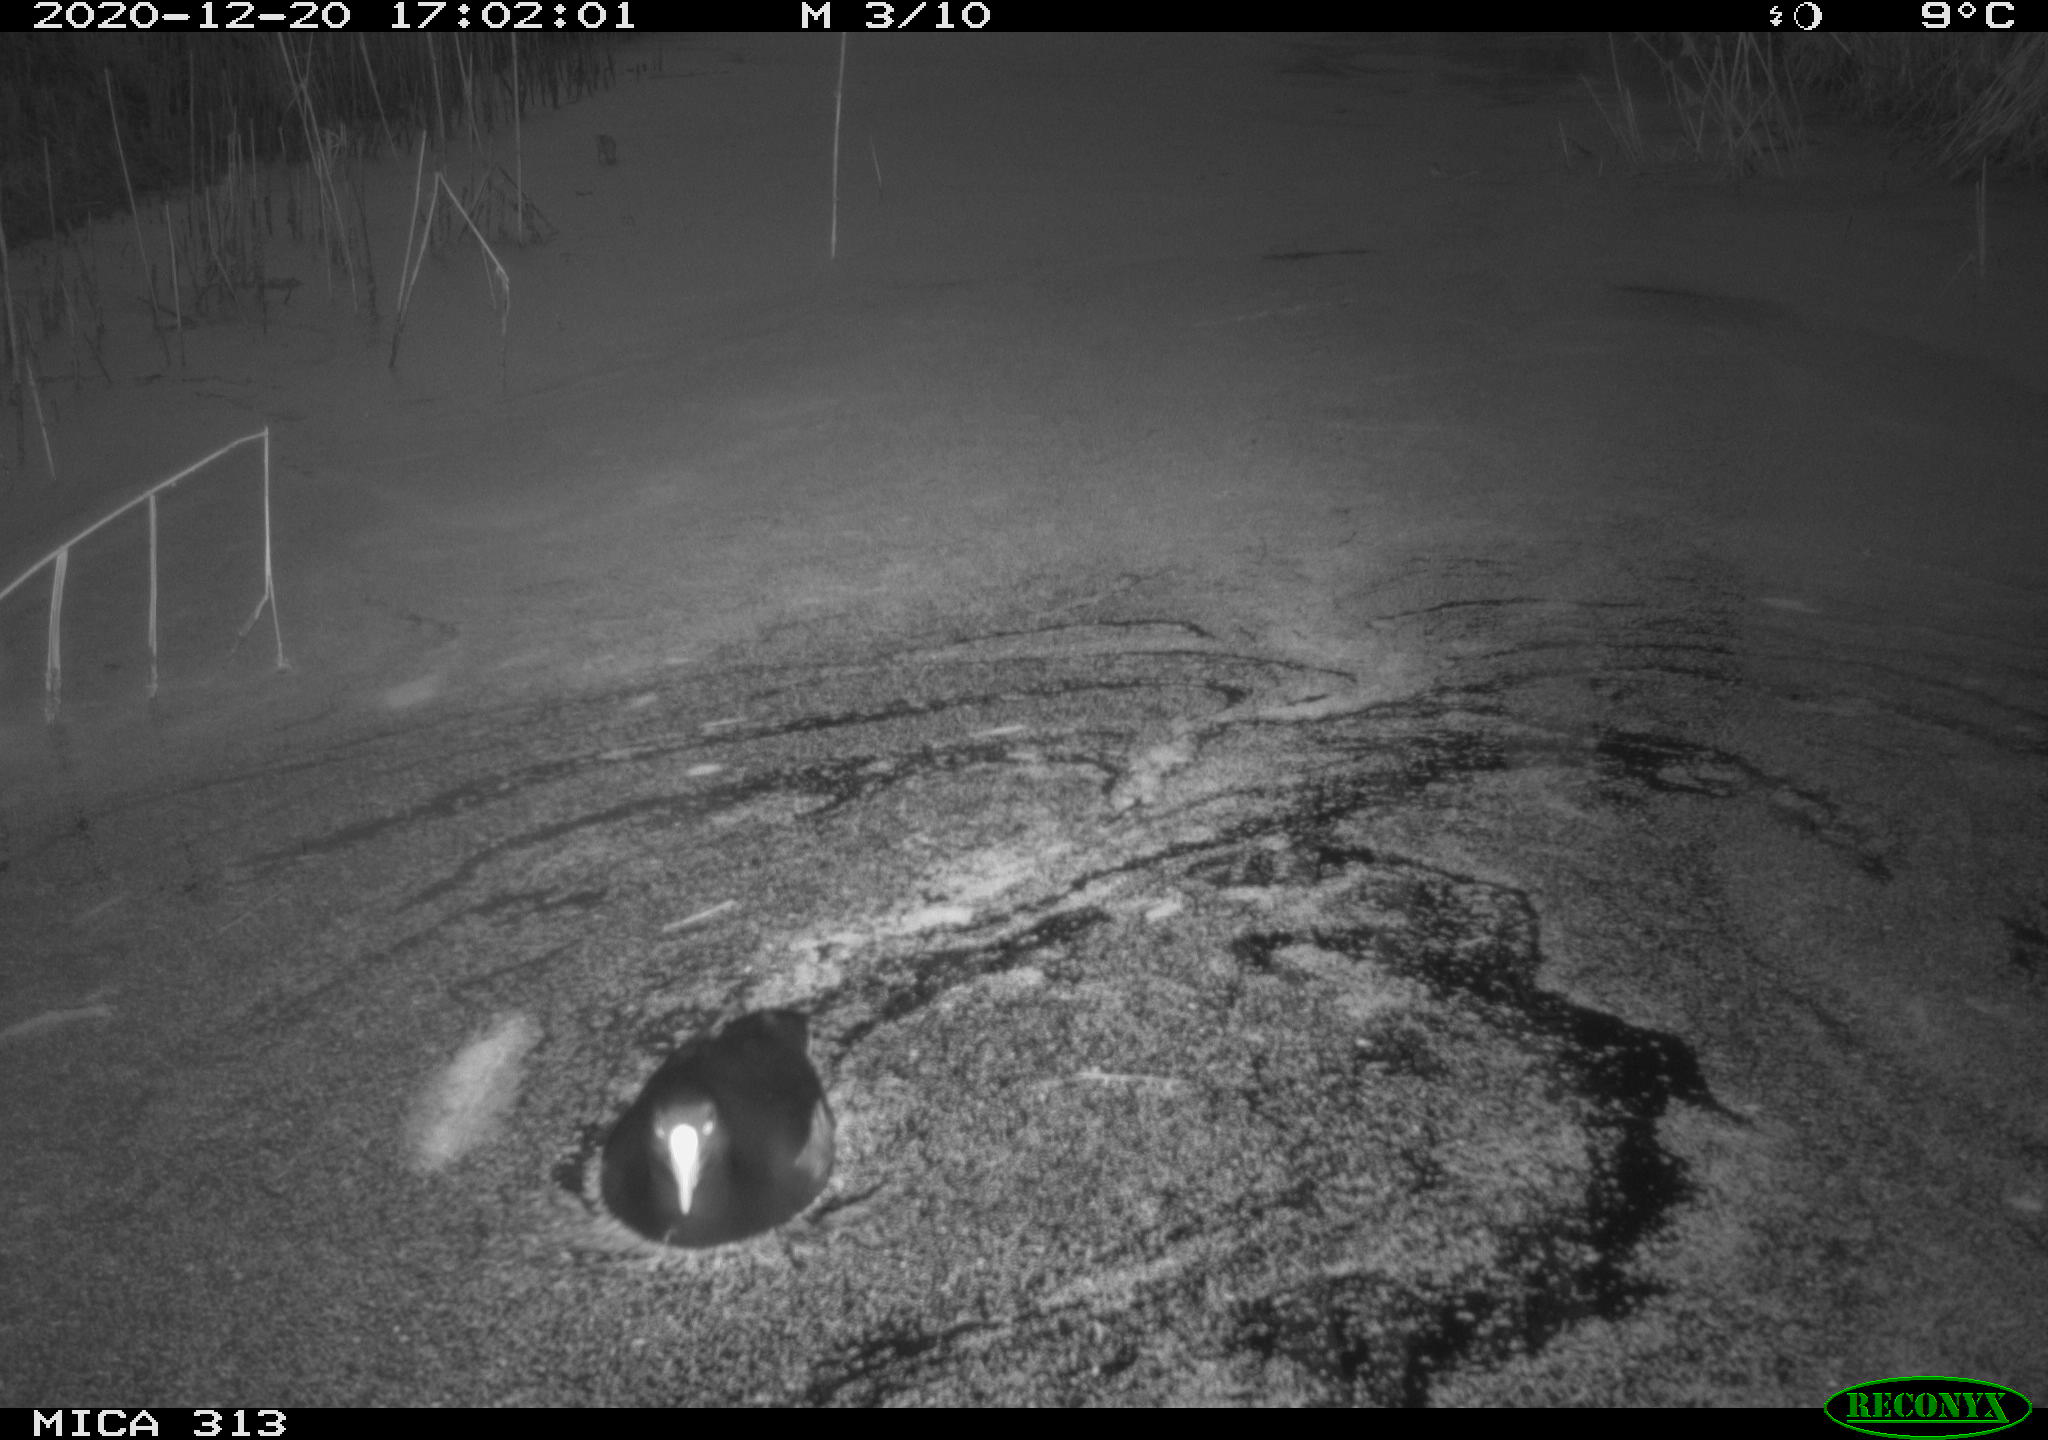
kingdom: Animalia
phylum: Chordata
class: Aves
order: Gruiformes
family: Rallidae
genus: Fulica
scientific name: Fulica atra
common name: Eurasian coot
